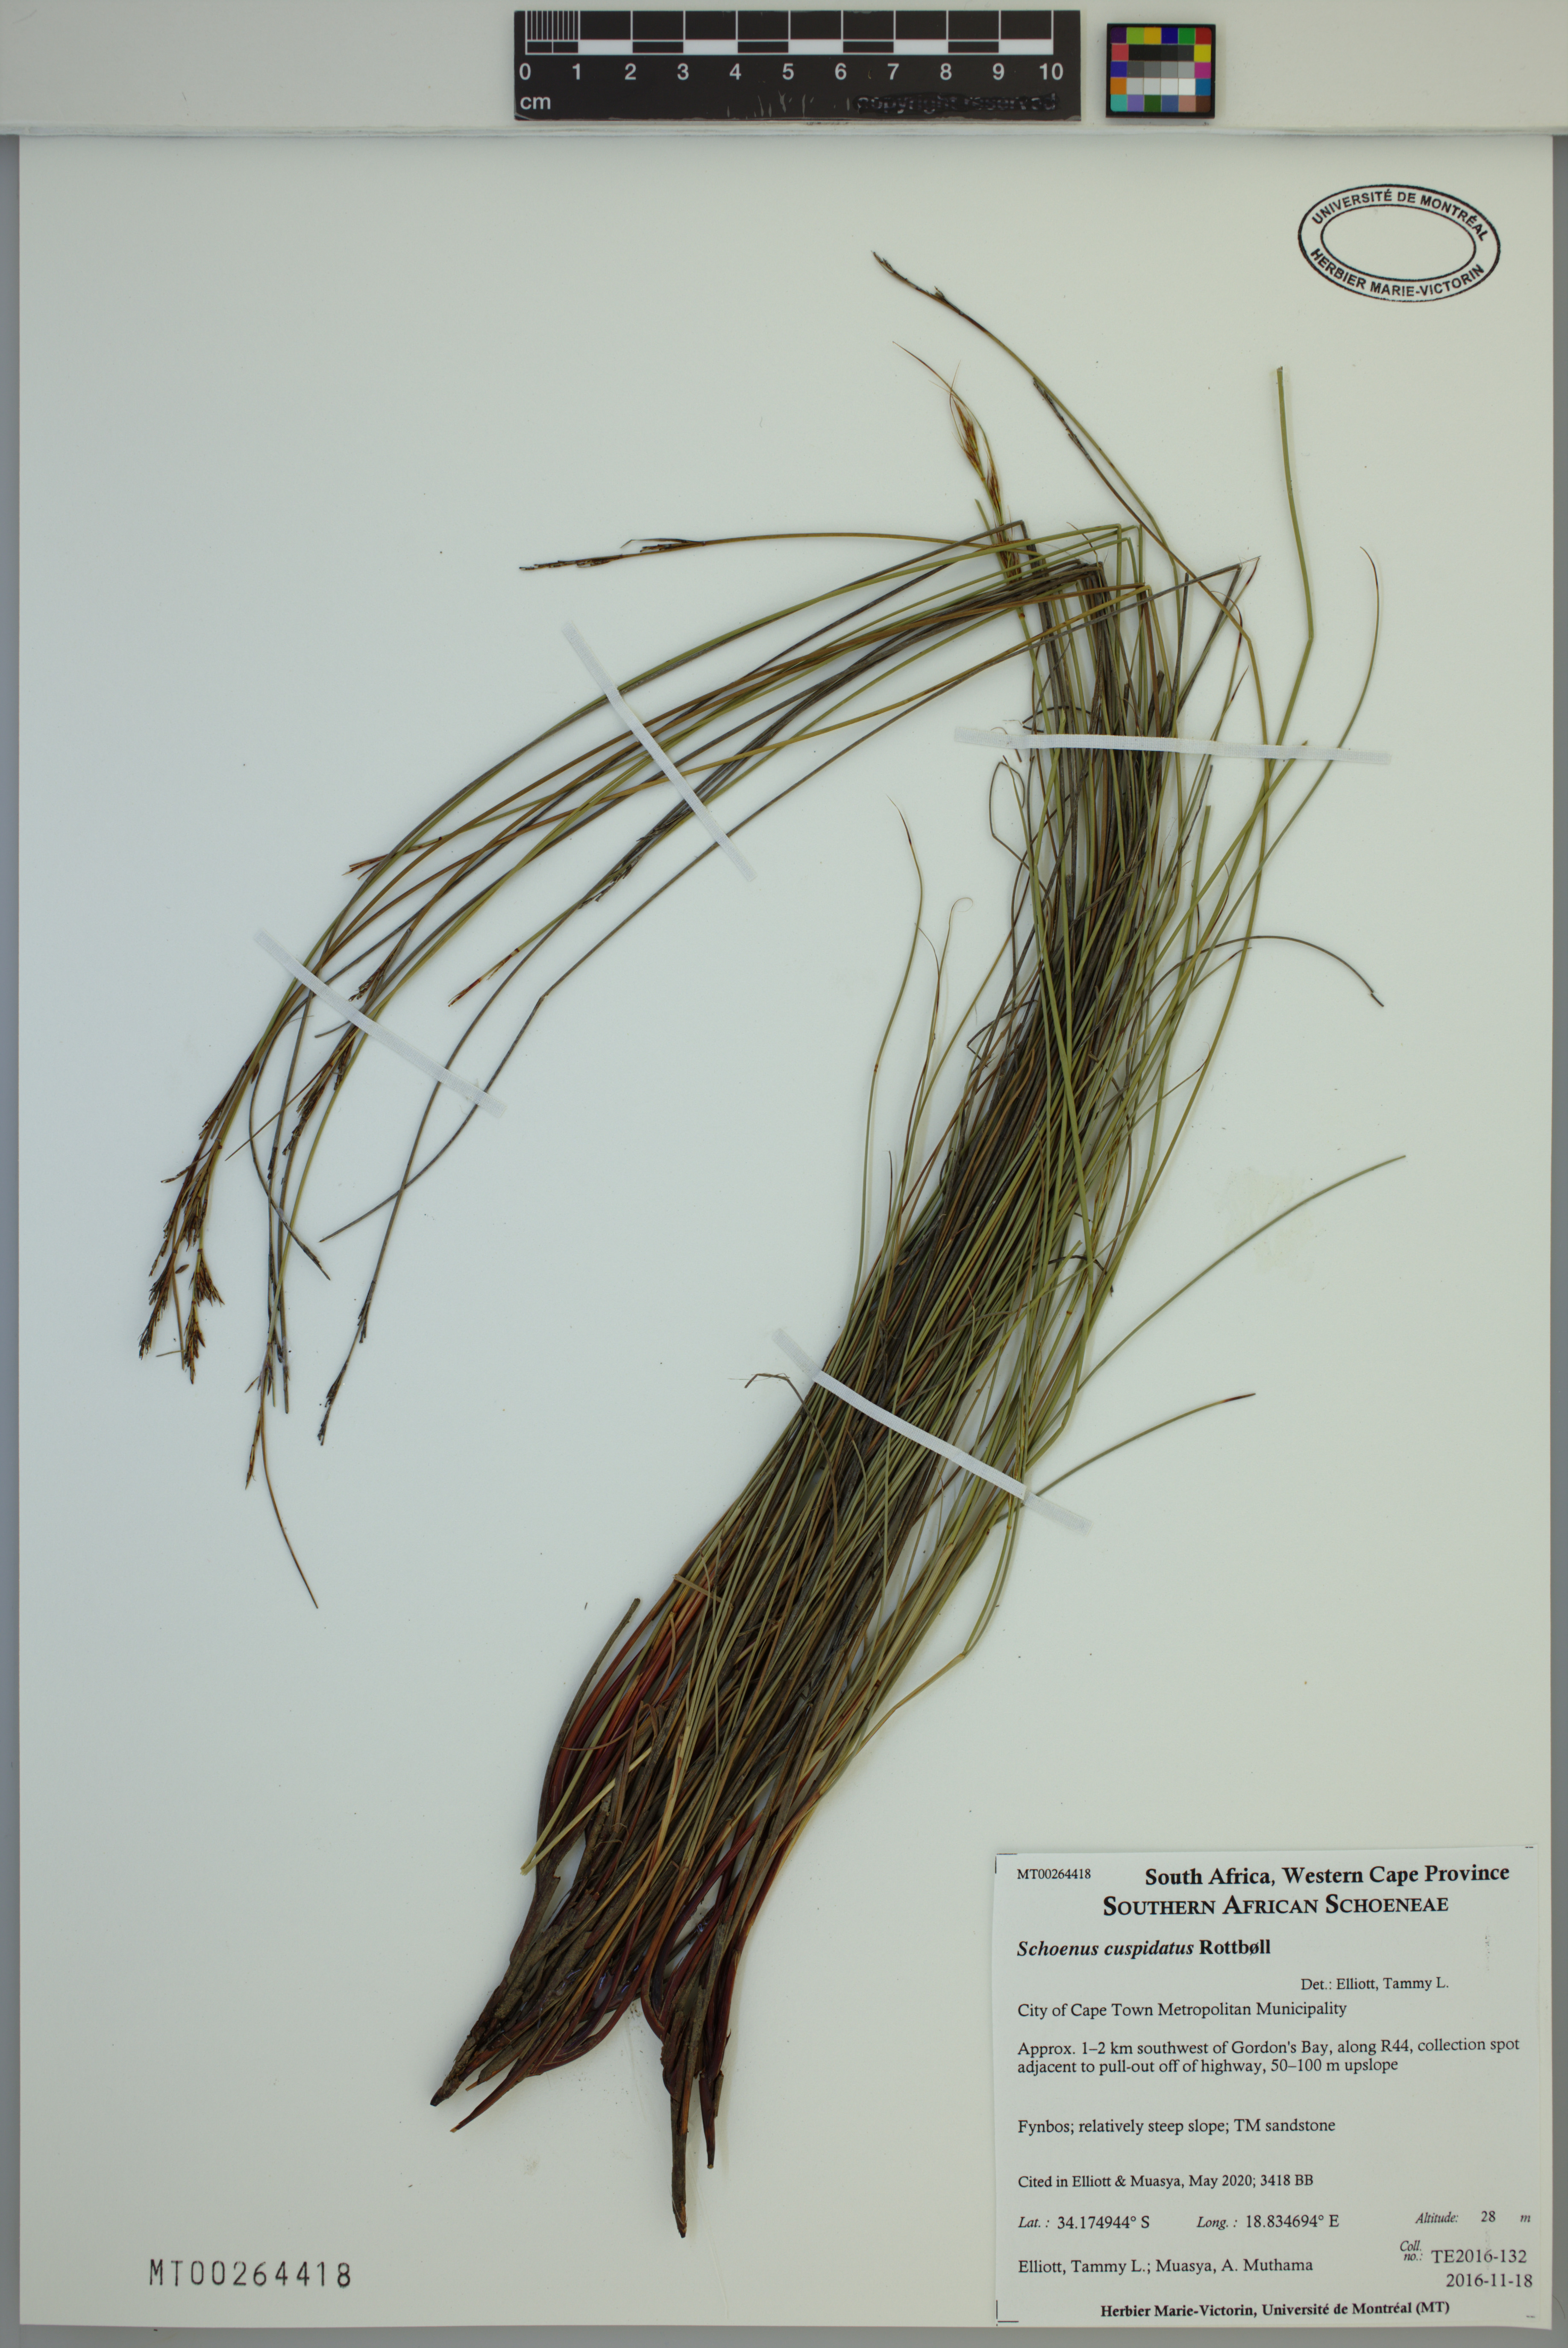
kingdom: Plantae
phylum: Tracheophyta
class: Liliopsida
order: Poales
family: Cyperaceae
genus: Schoenus
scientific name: Schoenus cuspidatus
